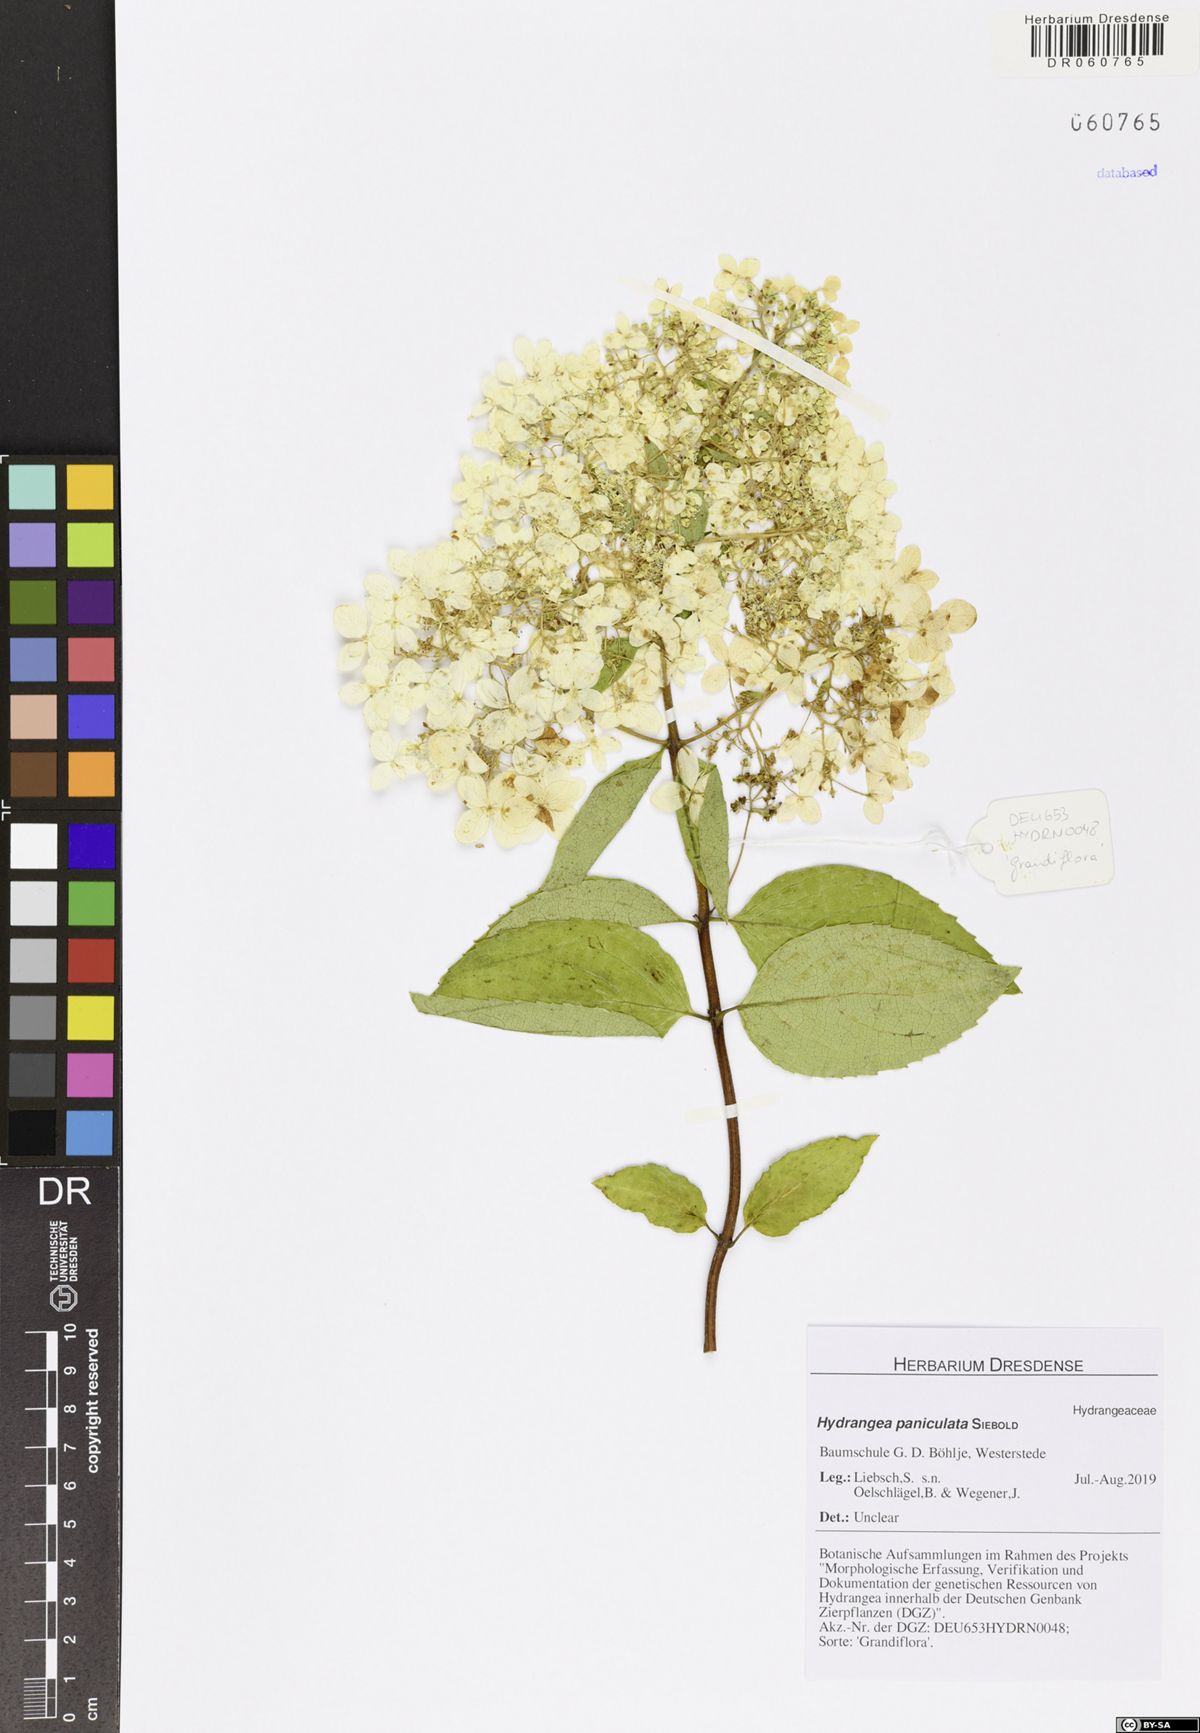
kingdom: Plantae
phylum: Tracheophyta
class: Magnoliopsida
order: Cornales
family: Hydrangeaceae
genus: Hydrangea
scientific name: Hydrangea paniculata
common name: Panicled hydrangea
